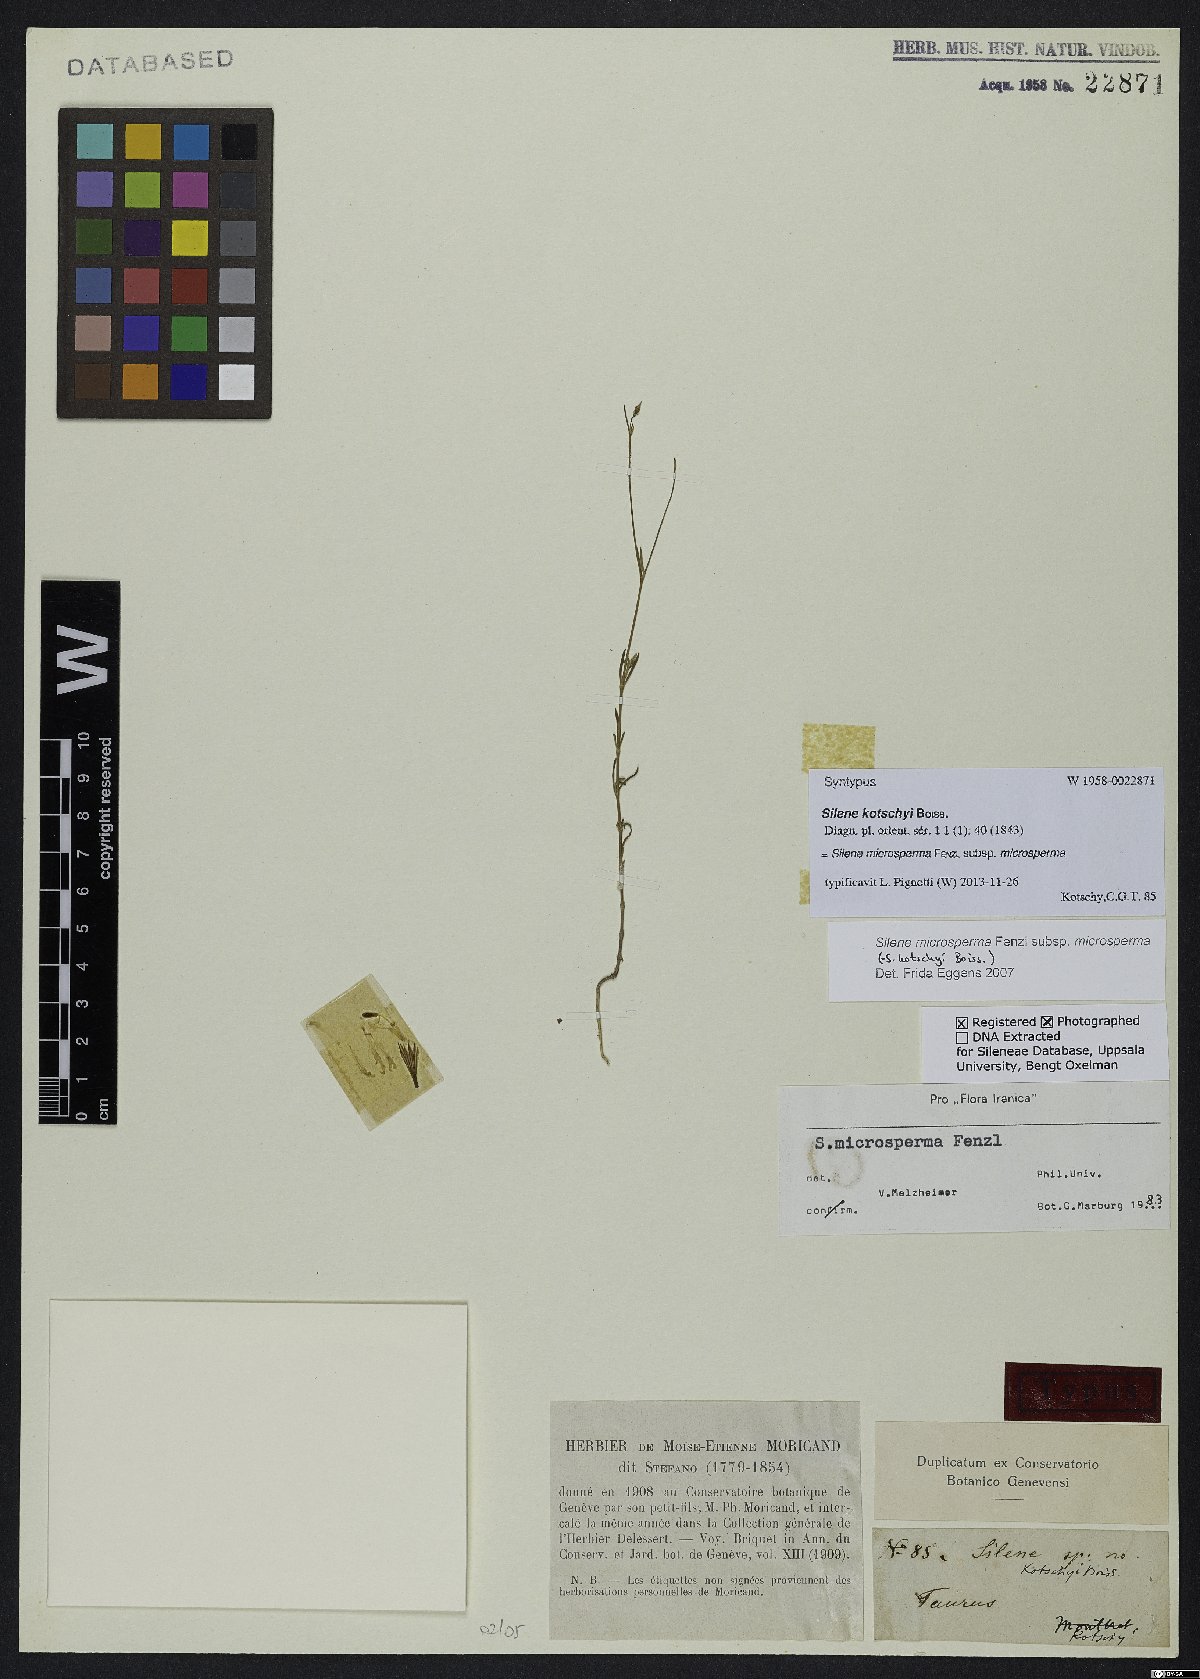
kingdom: Plantae
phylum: Tracheophyta
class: Magnoliopsida
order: Caryophyllales
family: Caryophyllaceae
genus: Silene
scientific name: Silene microsperma
